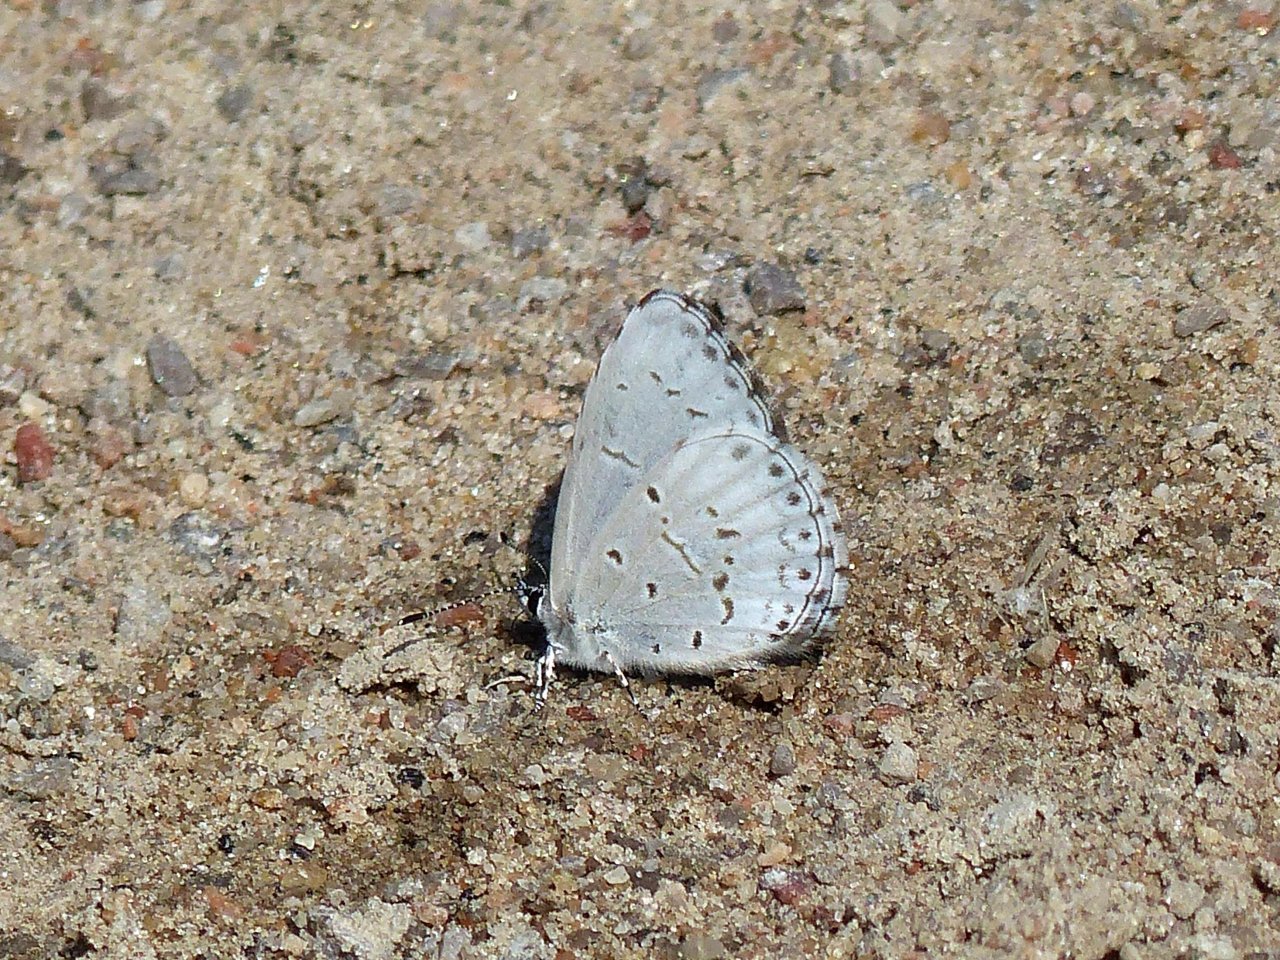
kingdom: Animalia
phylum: Arthropoda
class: Insecta
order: Lepidoptera
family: Lycaenidae
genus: Celastrina
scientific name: Celastrina lucia
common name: Northern Spring Azure
